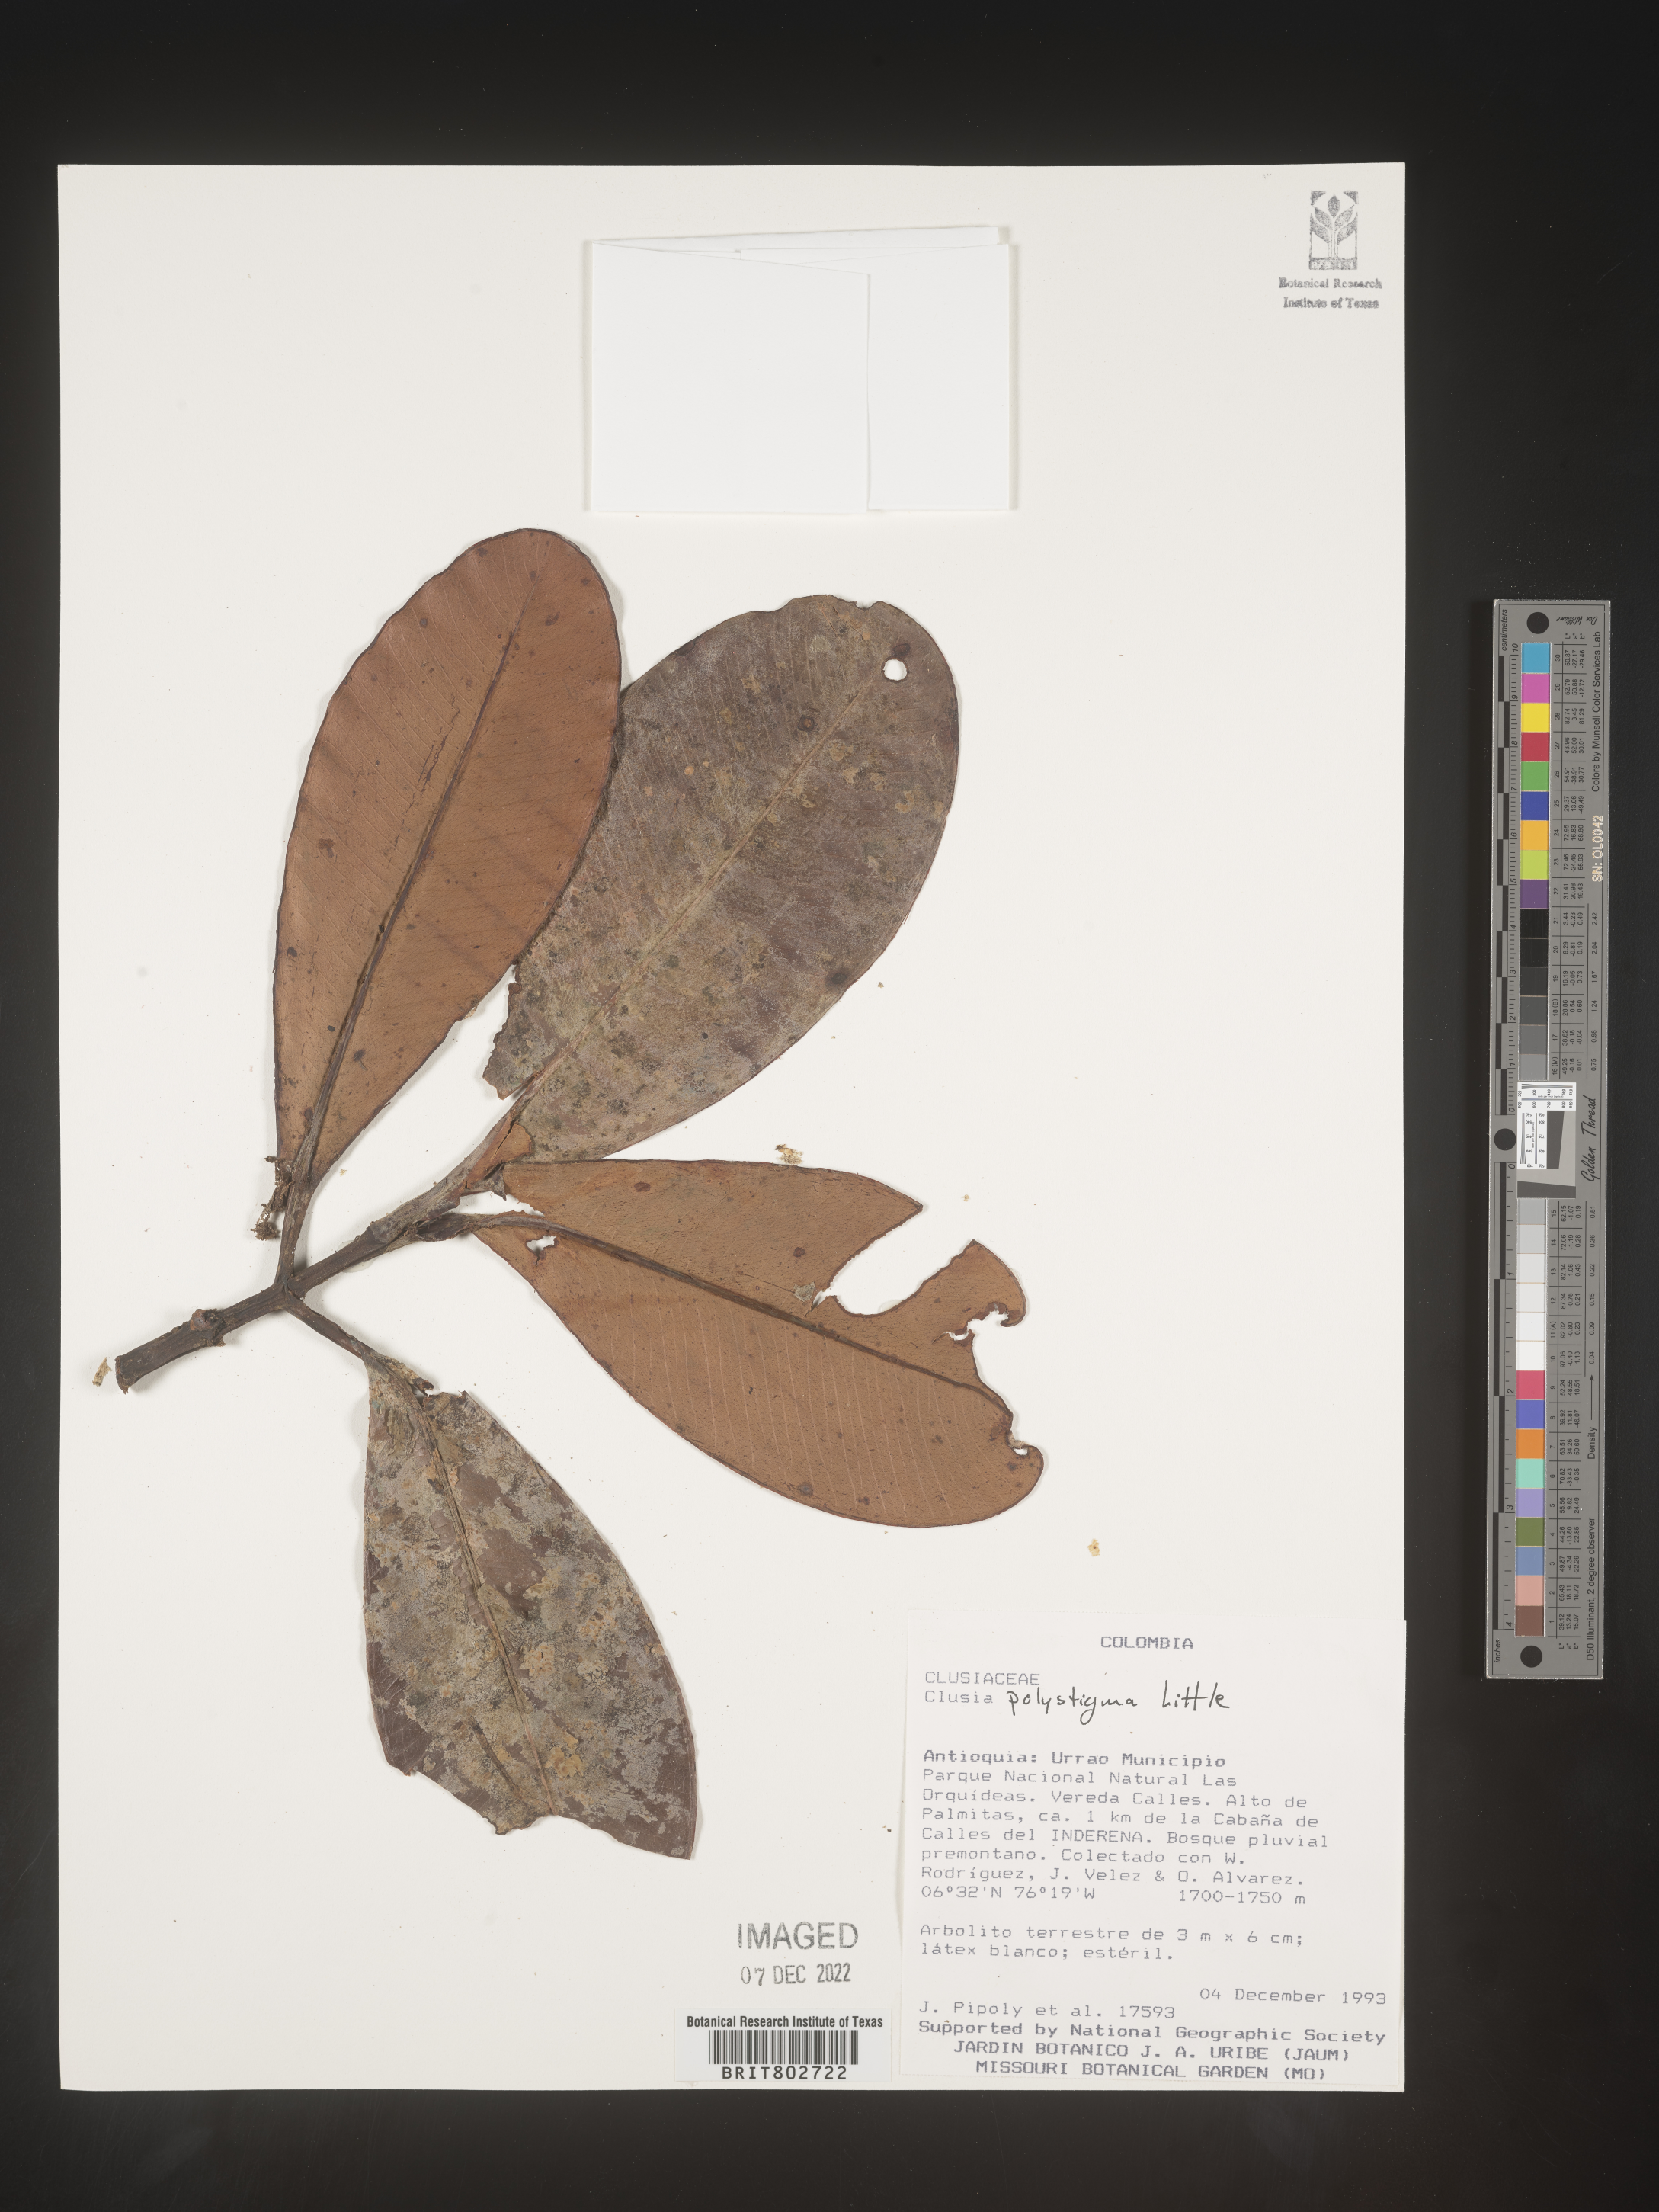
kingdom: Plantae
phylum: Tracheophyta
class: Magnoliopsida
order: Malpighiales
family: Clusiaceae
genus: Clusia
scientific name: Clusia
